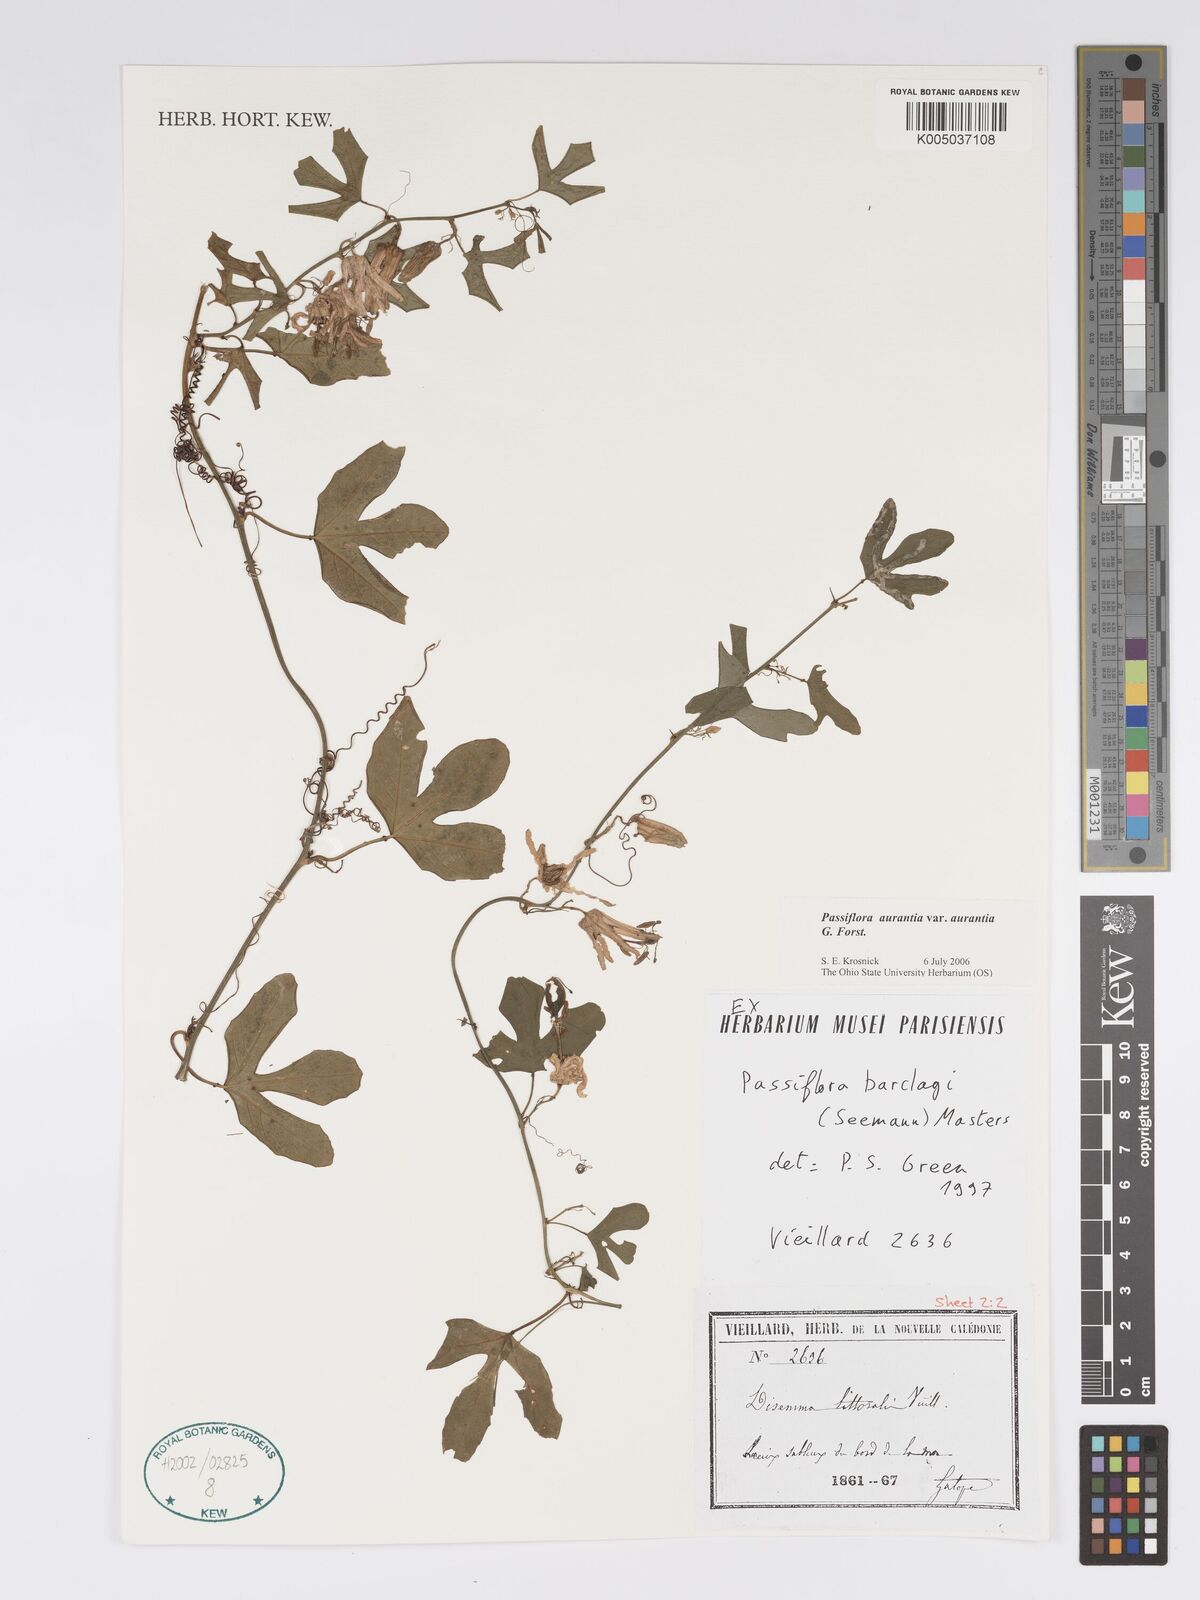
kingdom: Plantae
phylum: Tracheophyta
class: Magnoliopsida
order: Malpighiales
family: Passifloraceae
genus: Passiflora
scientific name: Passiflora aurantia
